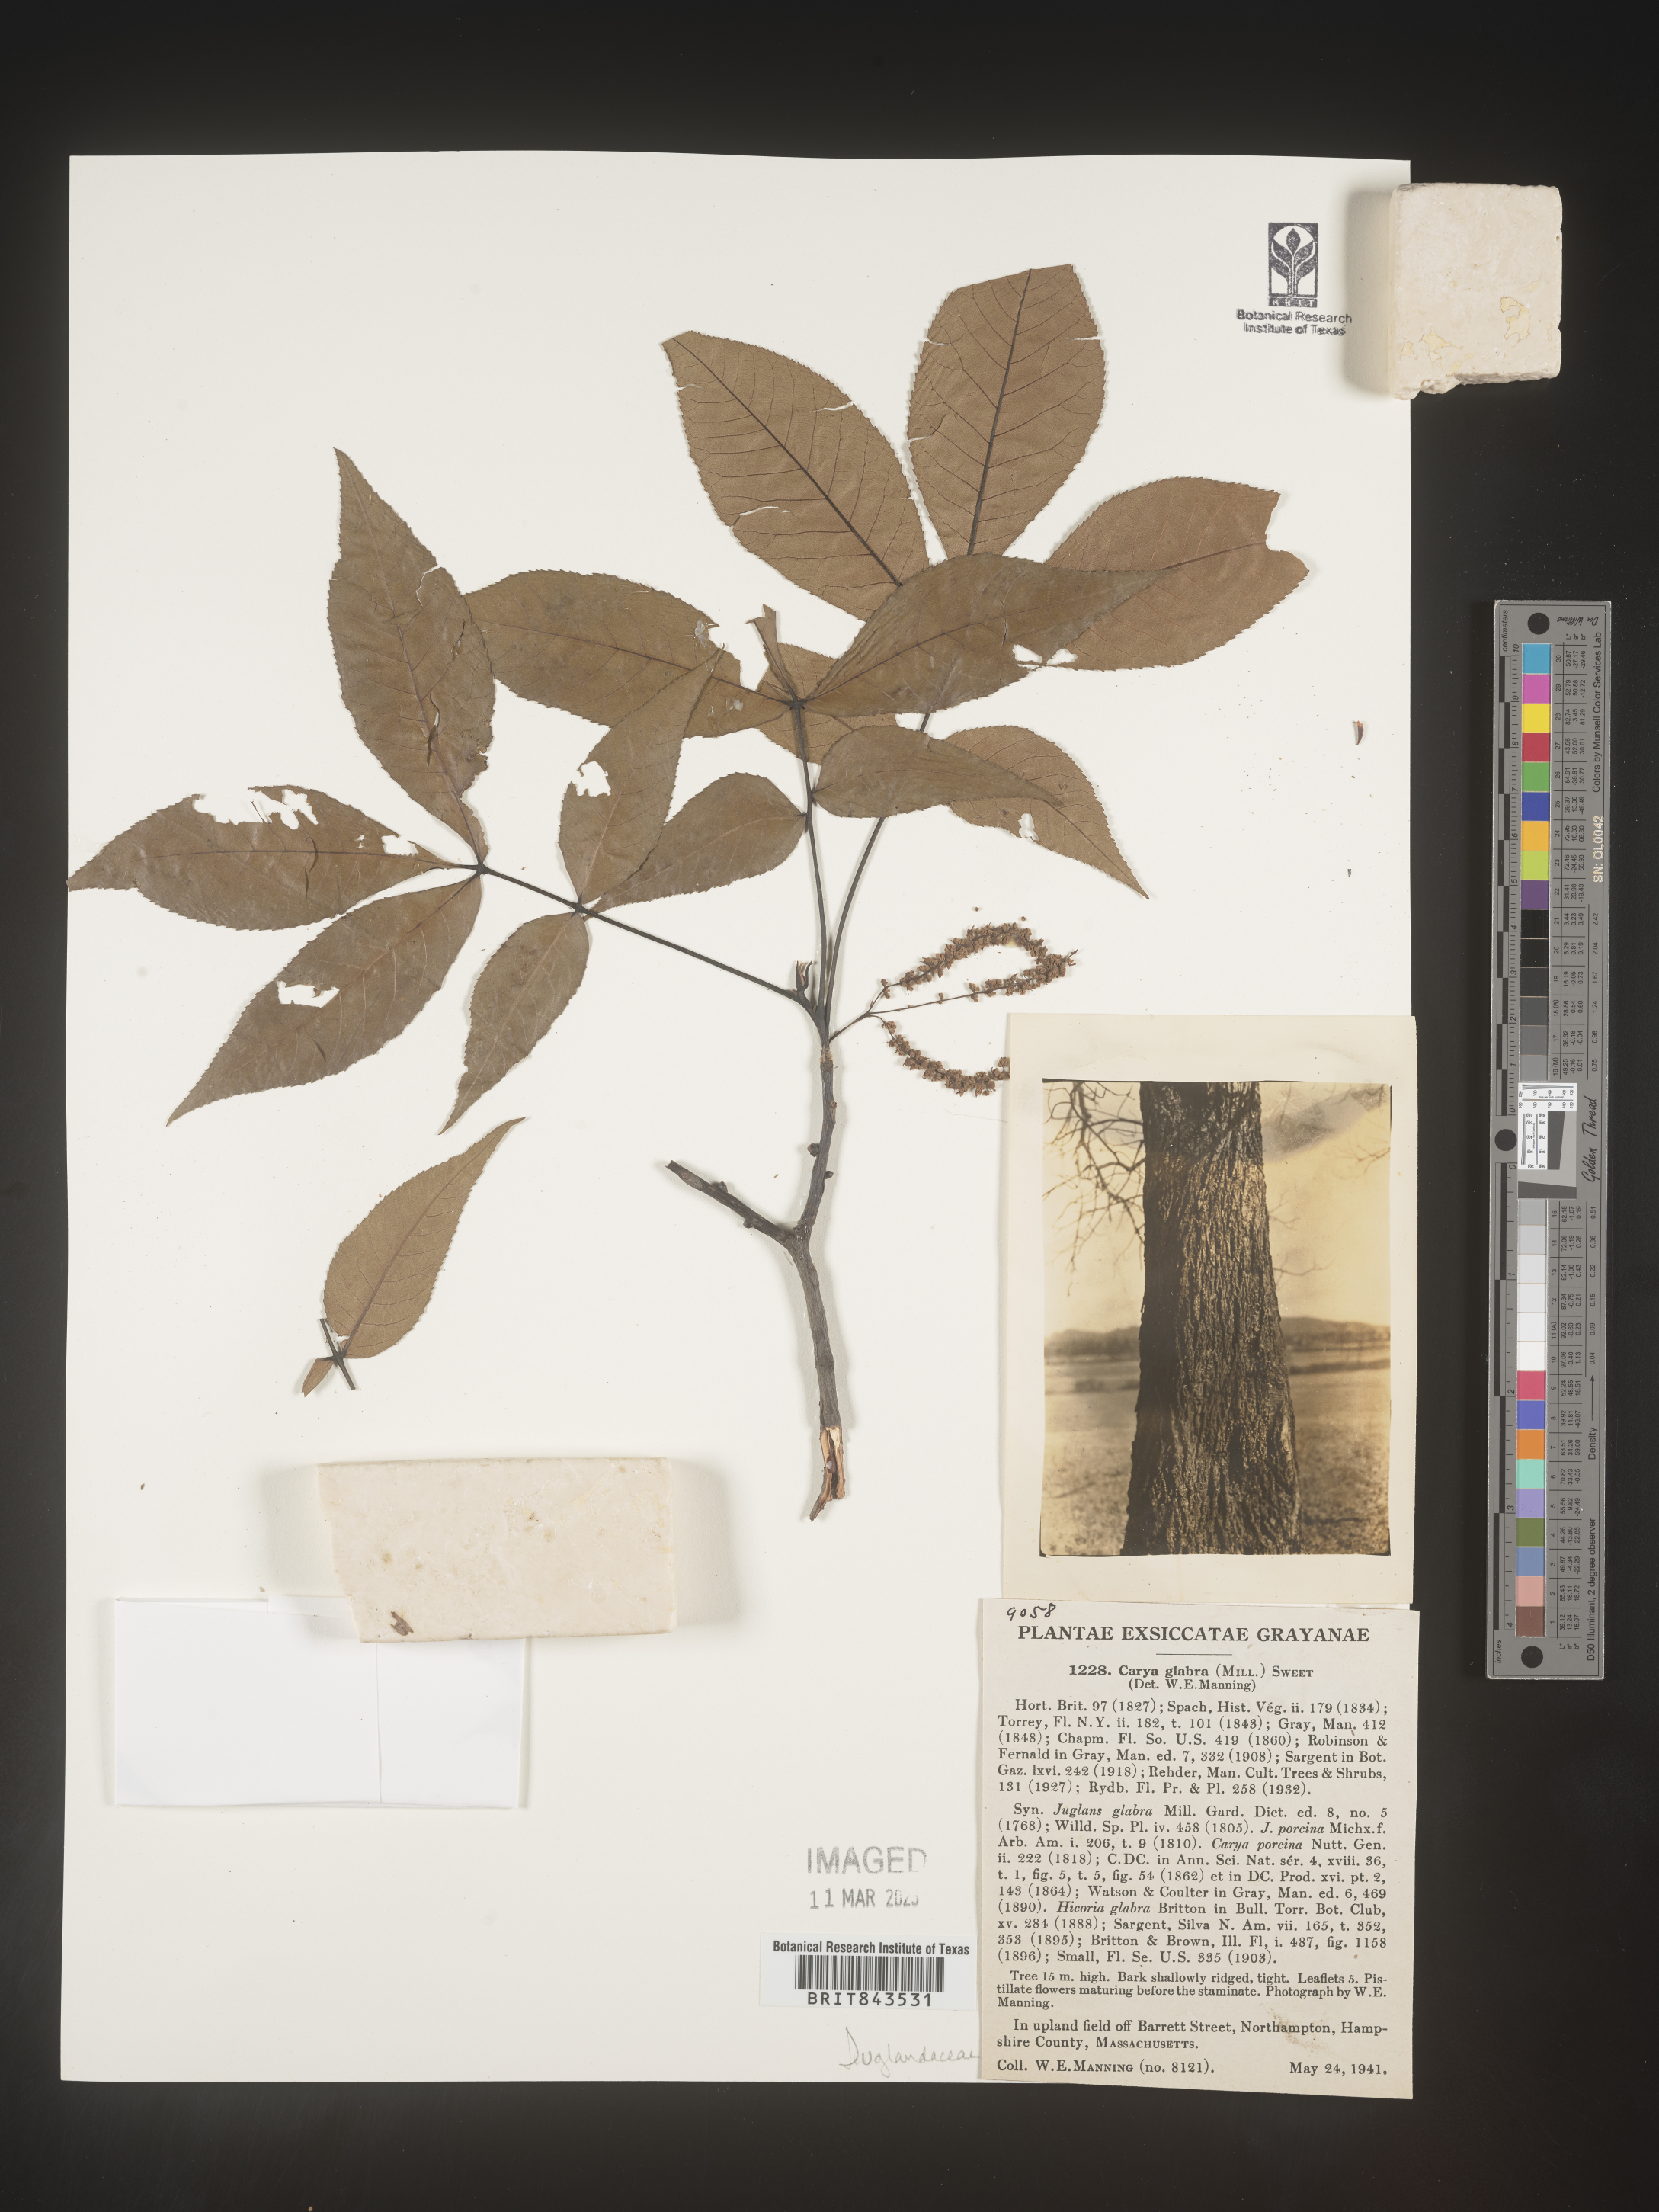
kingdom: Plantae
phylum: Tracheophyta
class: Magnoliopsida
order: Fagales
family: Juglandaceae
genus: Carya
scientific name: Carya glabra
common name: Pignut hickory
